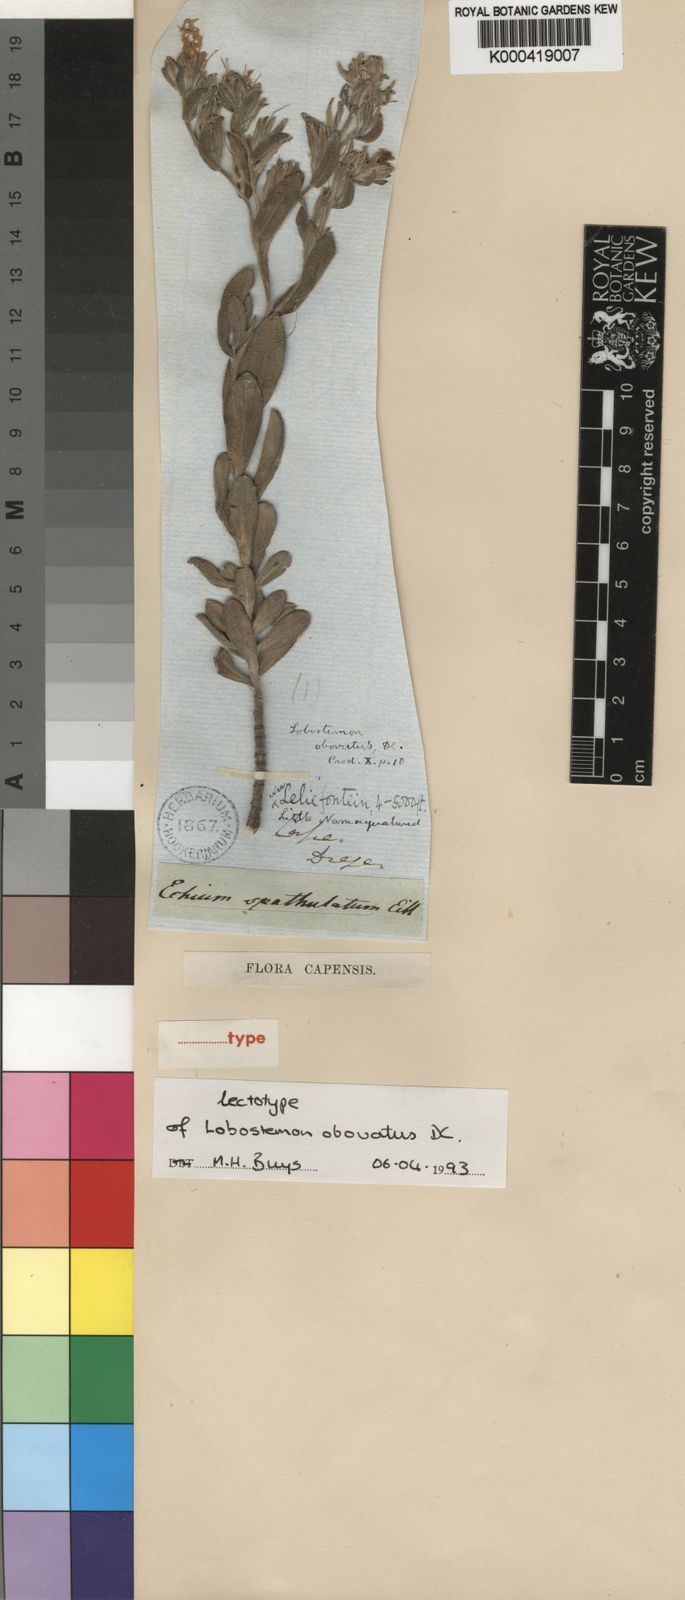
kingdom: Plantae
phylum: Tracheophyta
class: Magnoliopsida
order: Boraginales
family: Boraginaceae
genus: Lobostemon
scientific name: Lobostemon fruticosus
